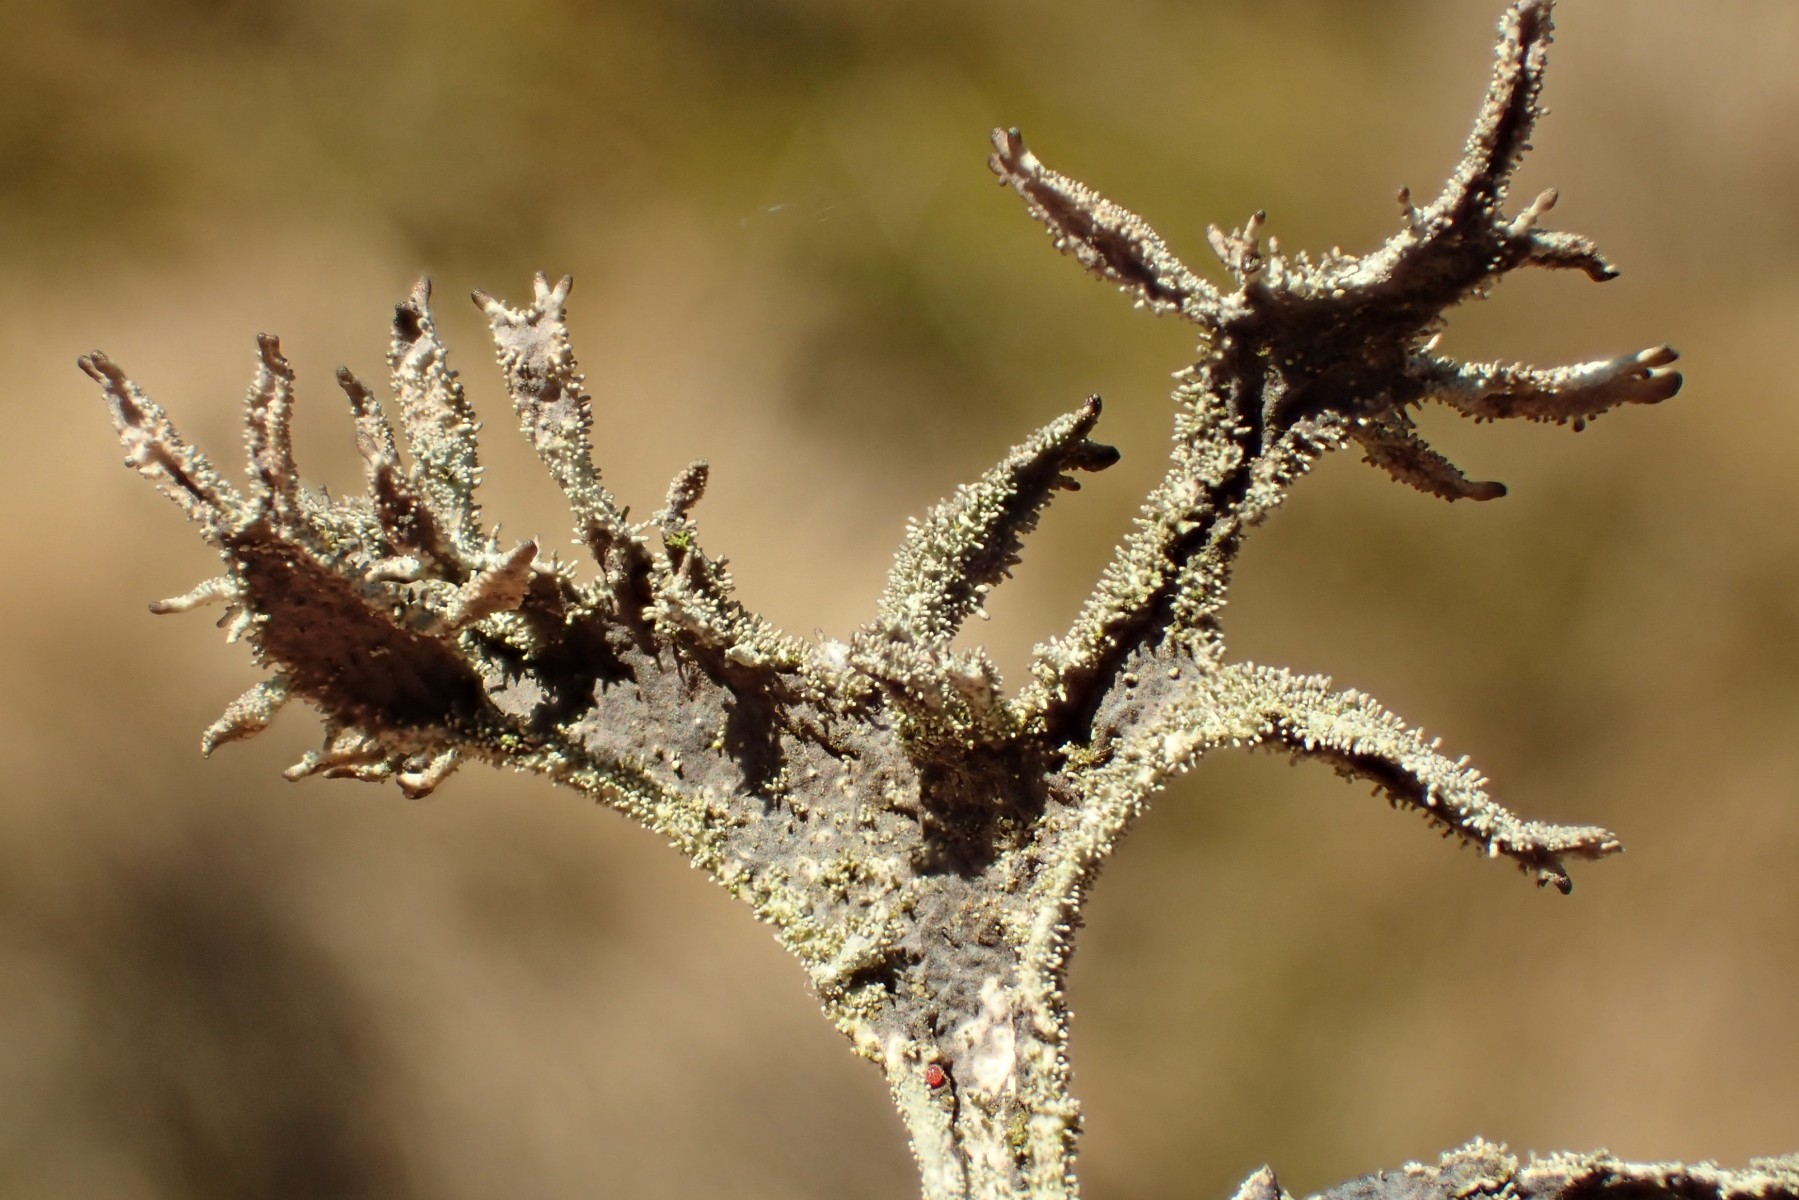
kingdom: Fungi
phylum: Ascomycota
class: Lecanoromycetes
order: Lecanorales
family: Parmeliaceae
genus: Pseudevernia
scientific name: Pseudevernia furfuracea
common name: grå fyrrelav
